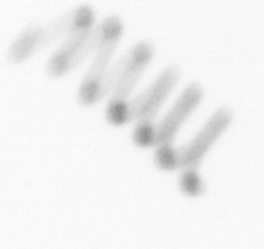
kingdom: Chromista
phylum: Ochrophyta
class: Bacillariophyceae
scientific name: Bacillariophyceae
